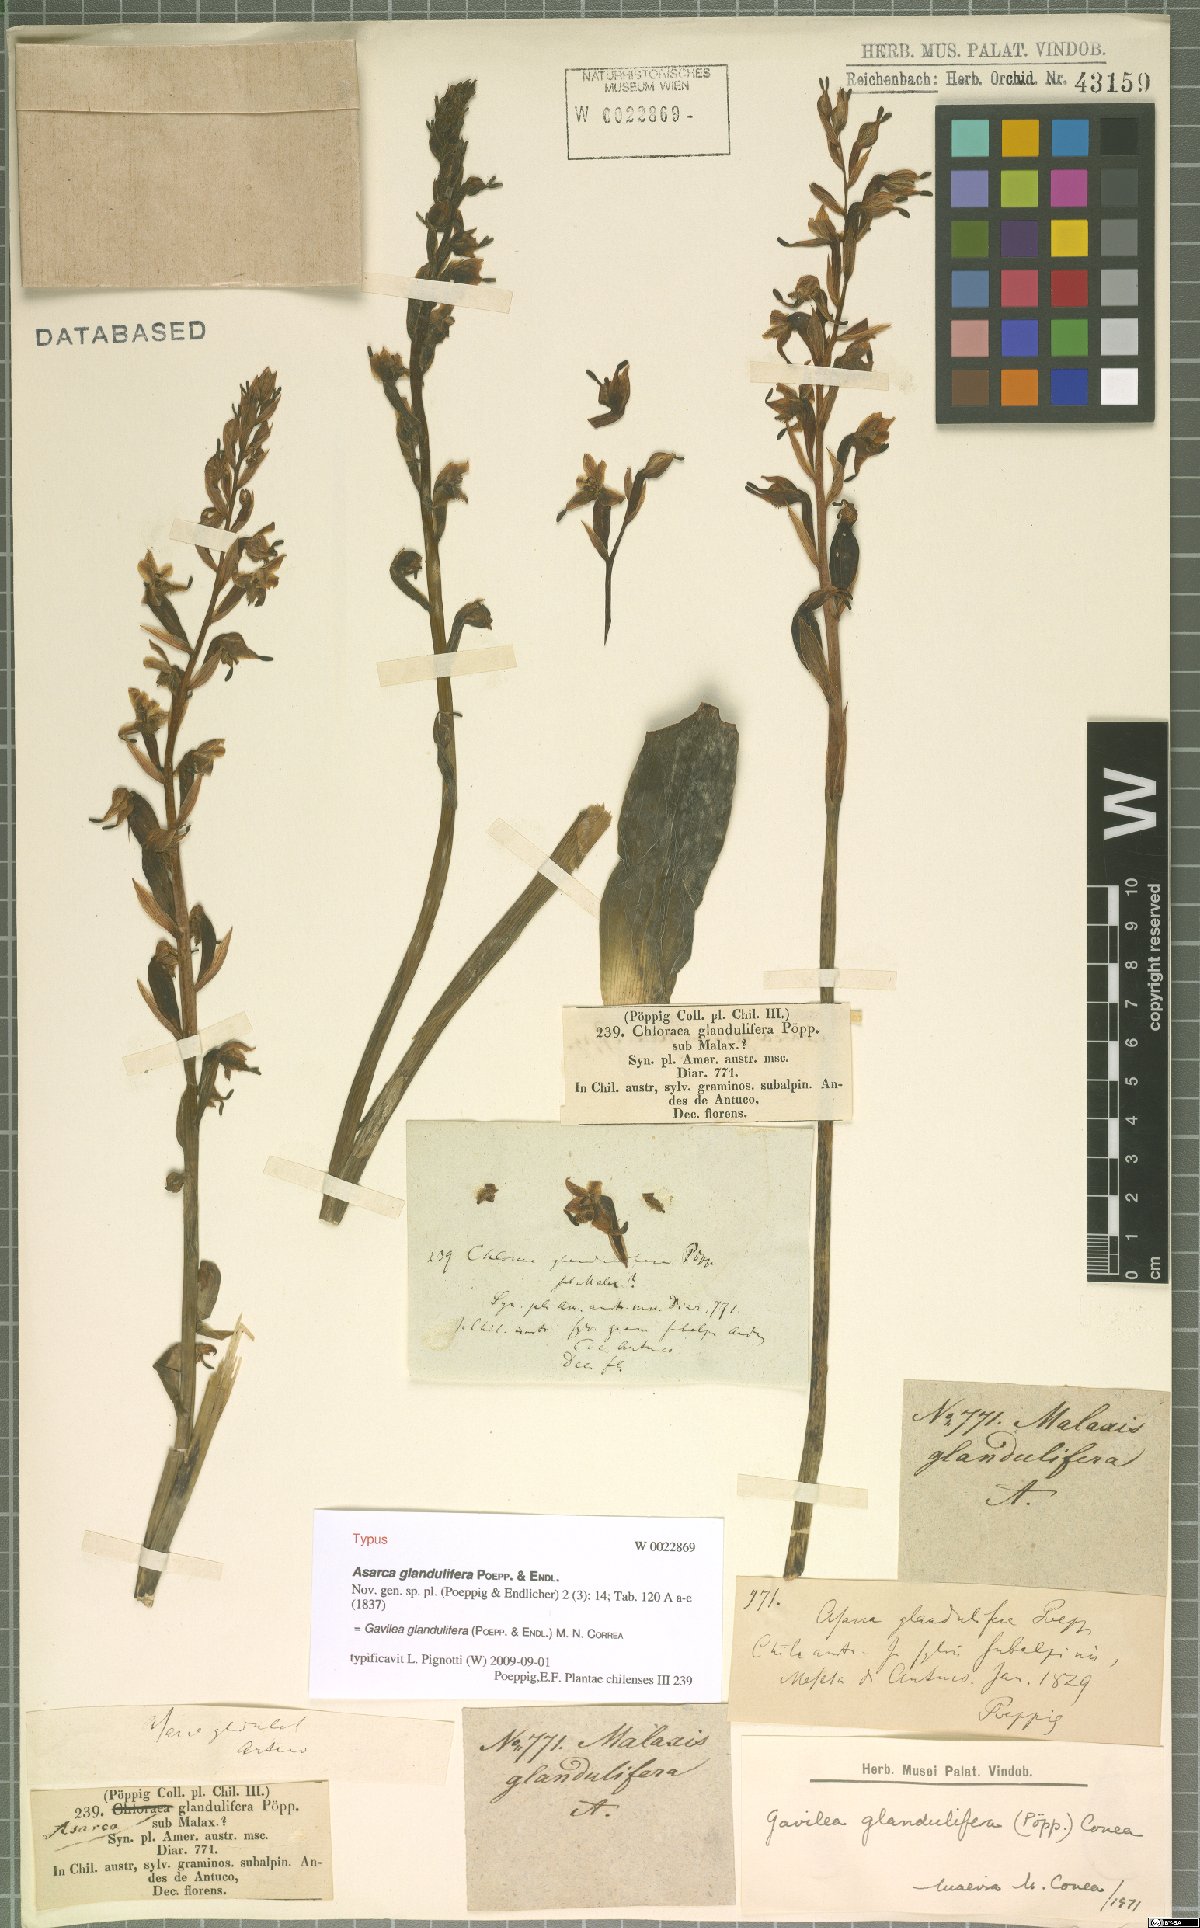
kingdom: Plantae
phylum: Tracheophyta
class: Liliopsida
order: Asparagales
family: Orchidaceae
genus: Gavilea
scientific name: Gavilea glandulifera
